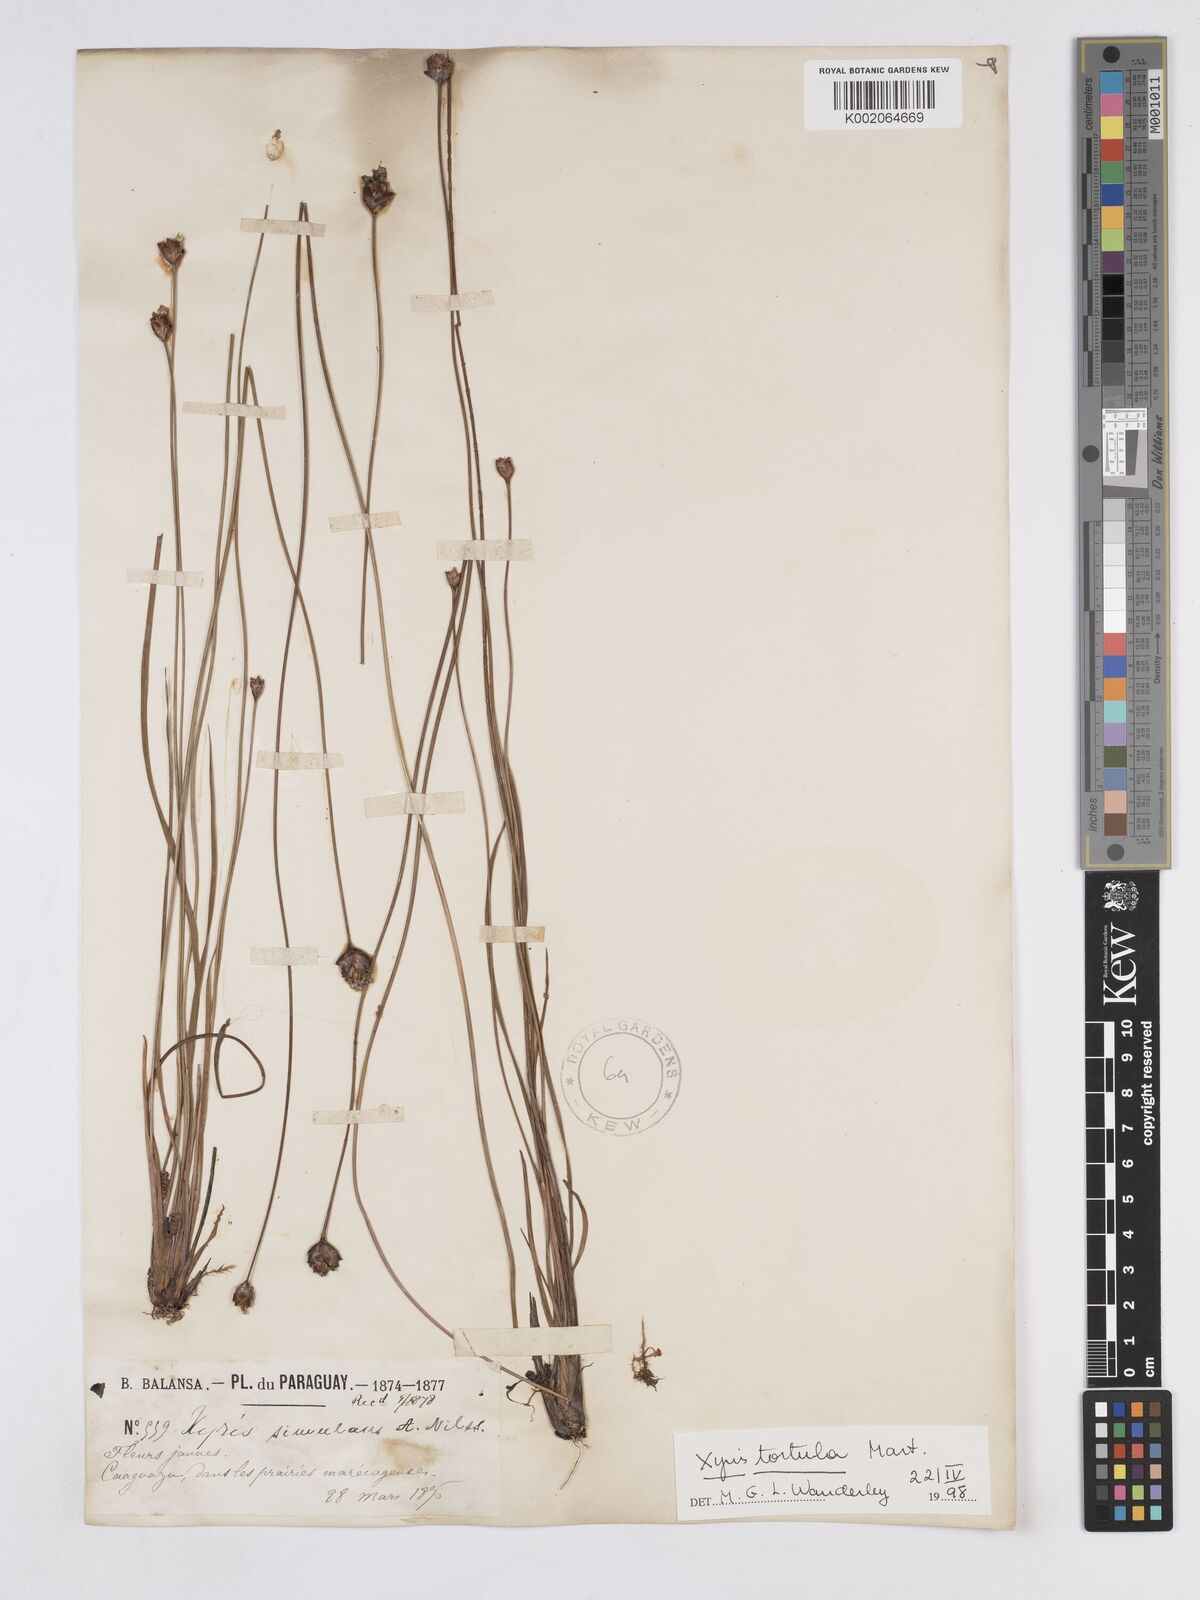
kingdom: Plantae
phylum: Tracheophyta
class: Liliopsida
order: Poales
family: Xyridaceae
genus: Xyris
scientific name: Xyris tortula
